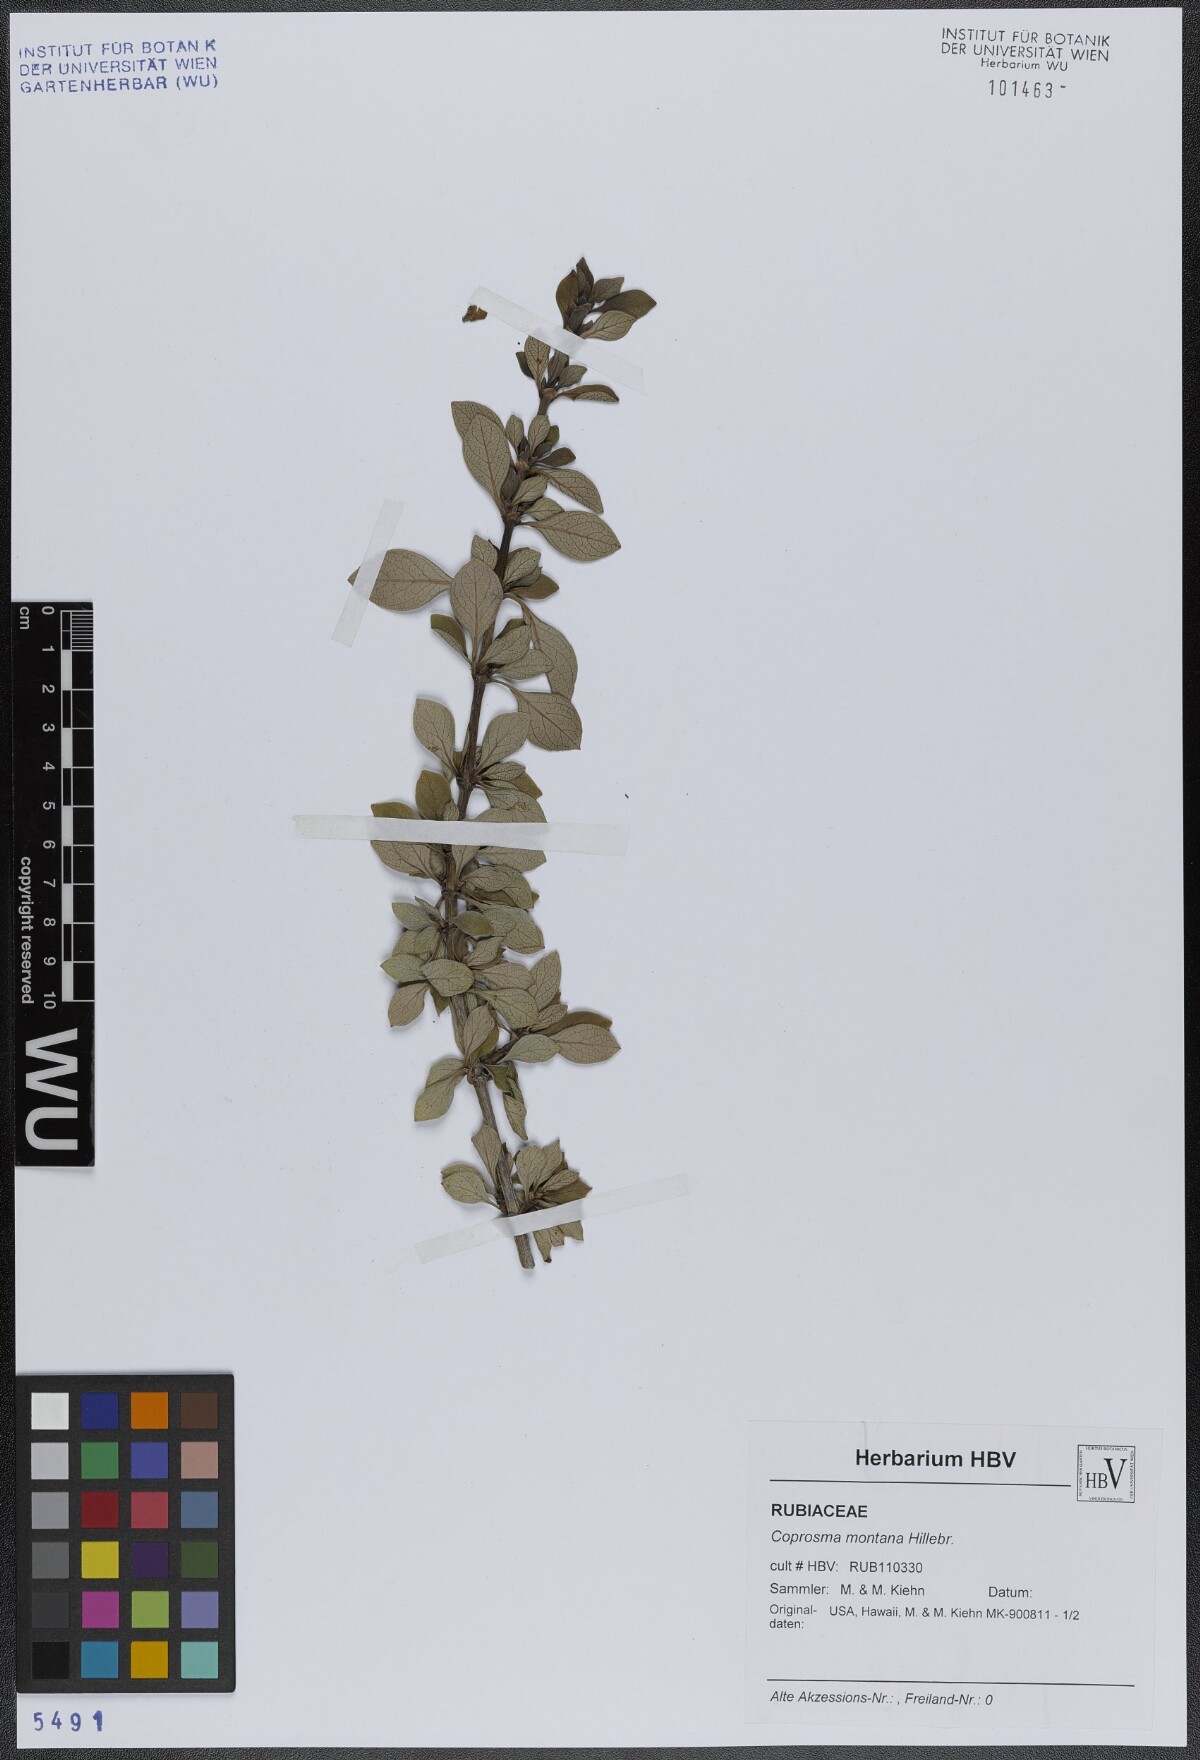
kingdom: Plantae
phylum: Tracheophyta
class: Magnoliopsida
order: Gentianales
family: Rubiaceae
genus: Coprosma
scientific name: Coprosma montana
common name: Alpine mirror plant
